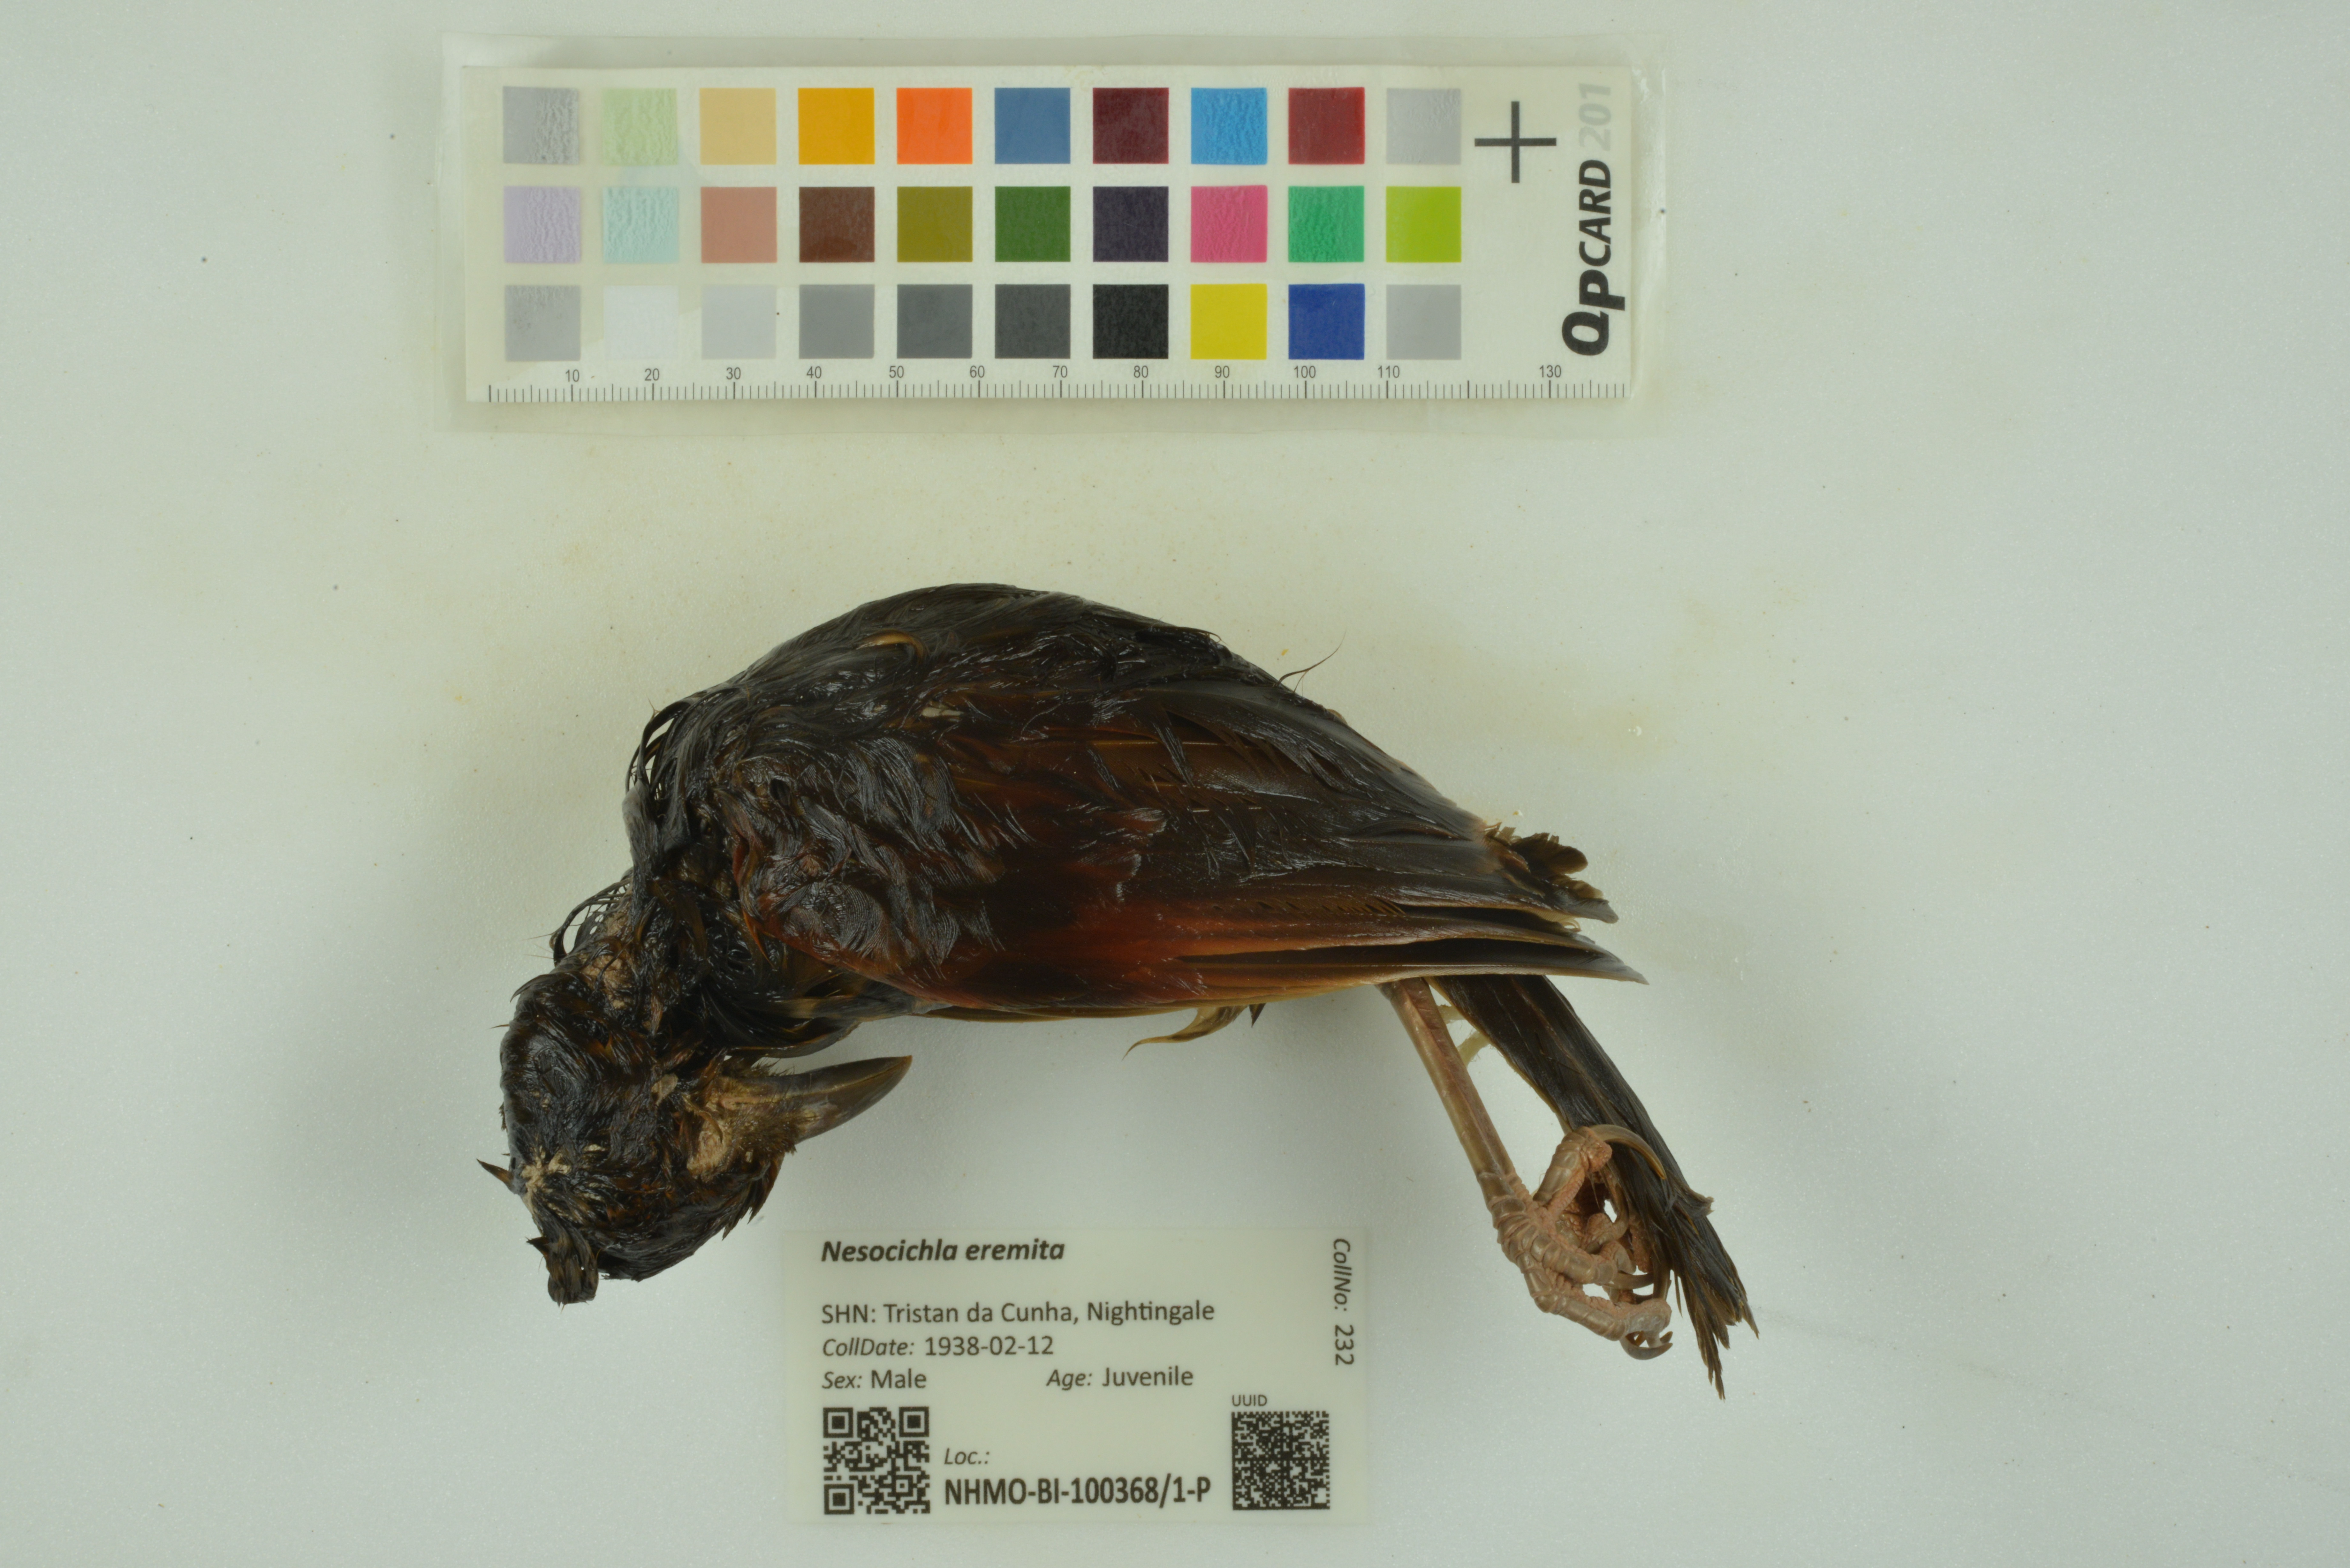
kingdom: Animalia
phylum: Chordata
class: Aves
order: Passeriformes
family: Turdidae
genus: Nesocichla
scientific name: Nesocichla eremita
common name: Tristan thrush
